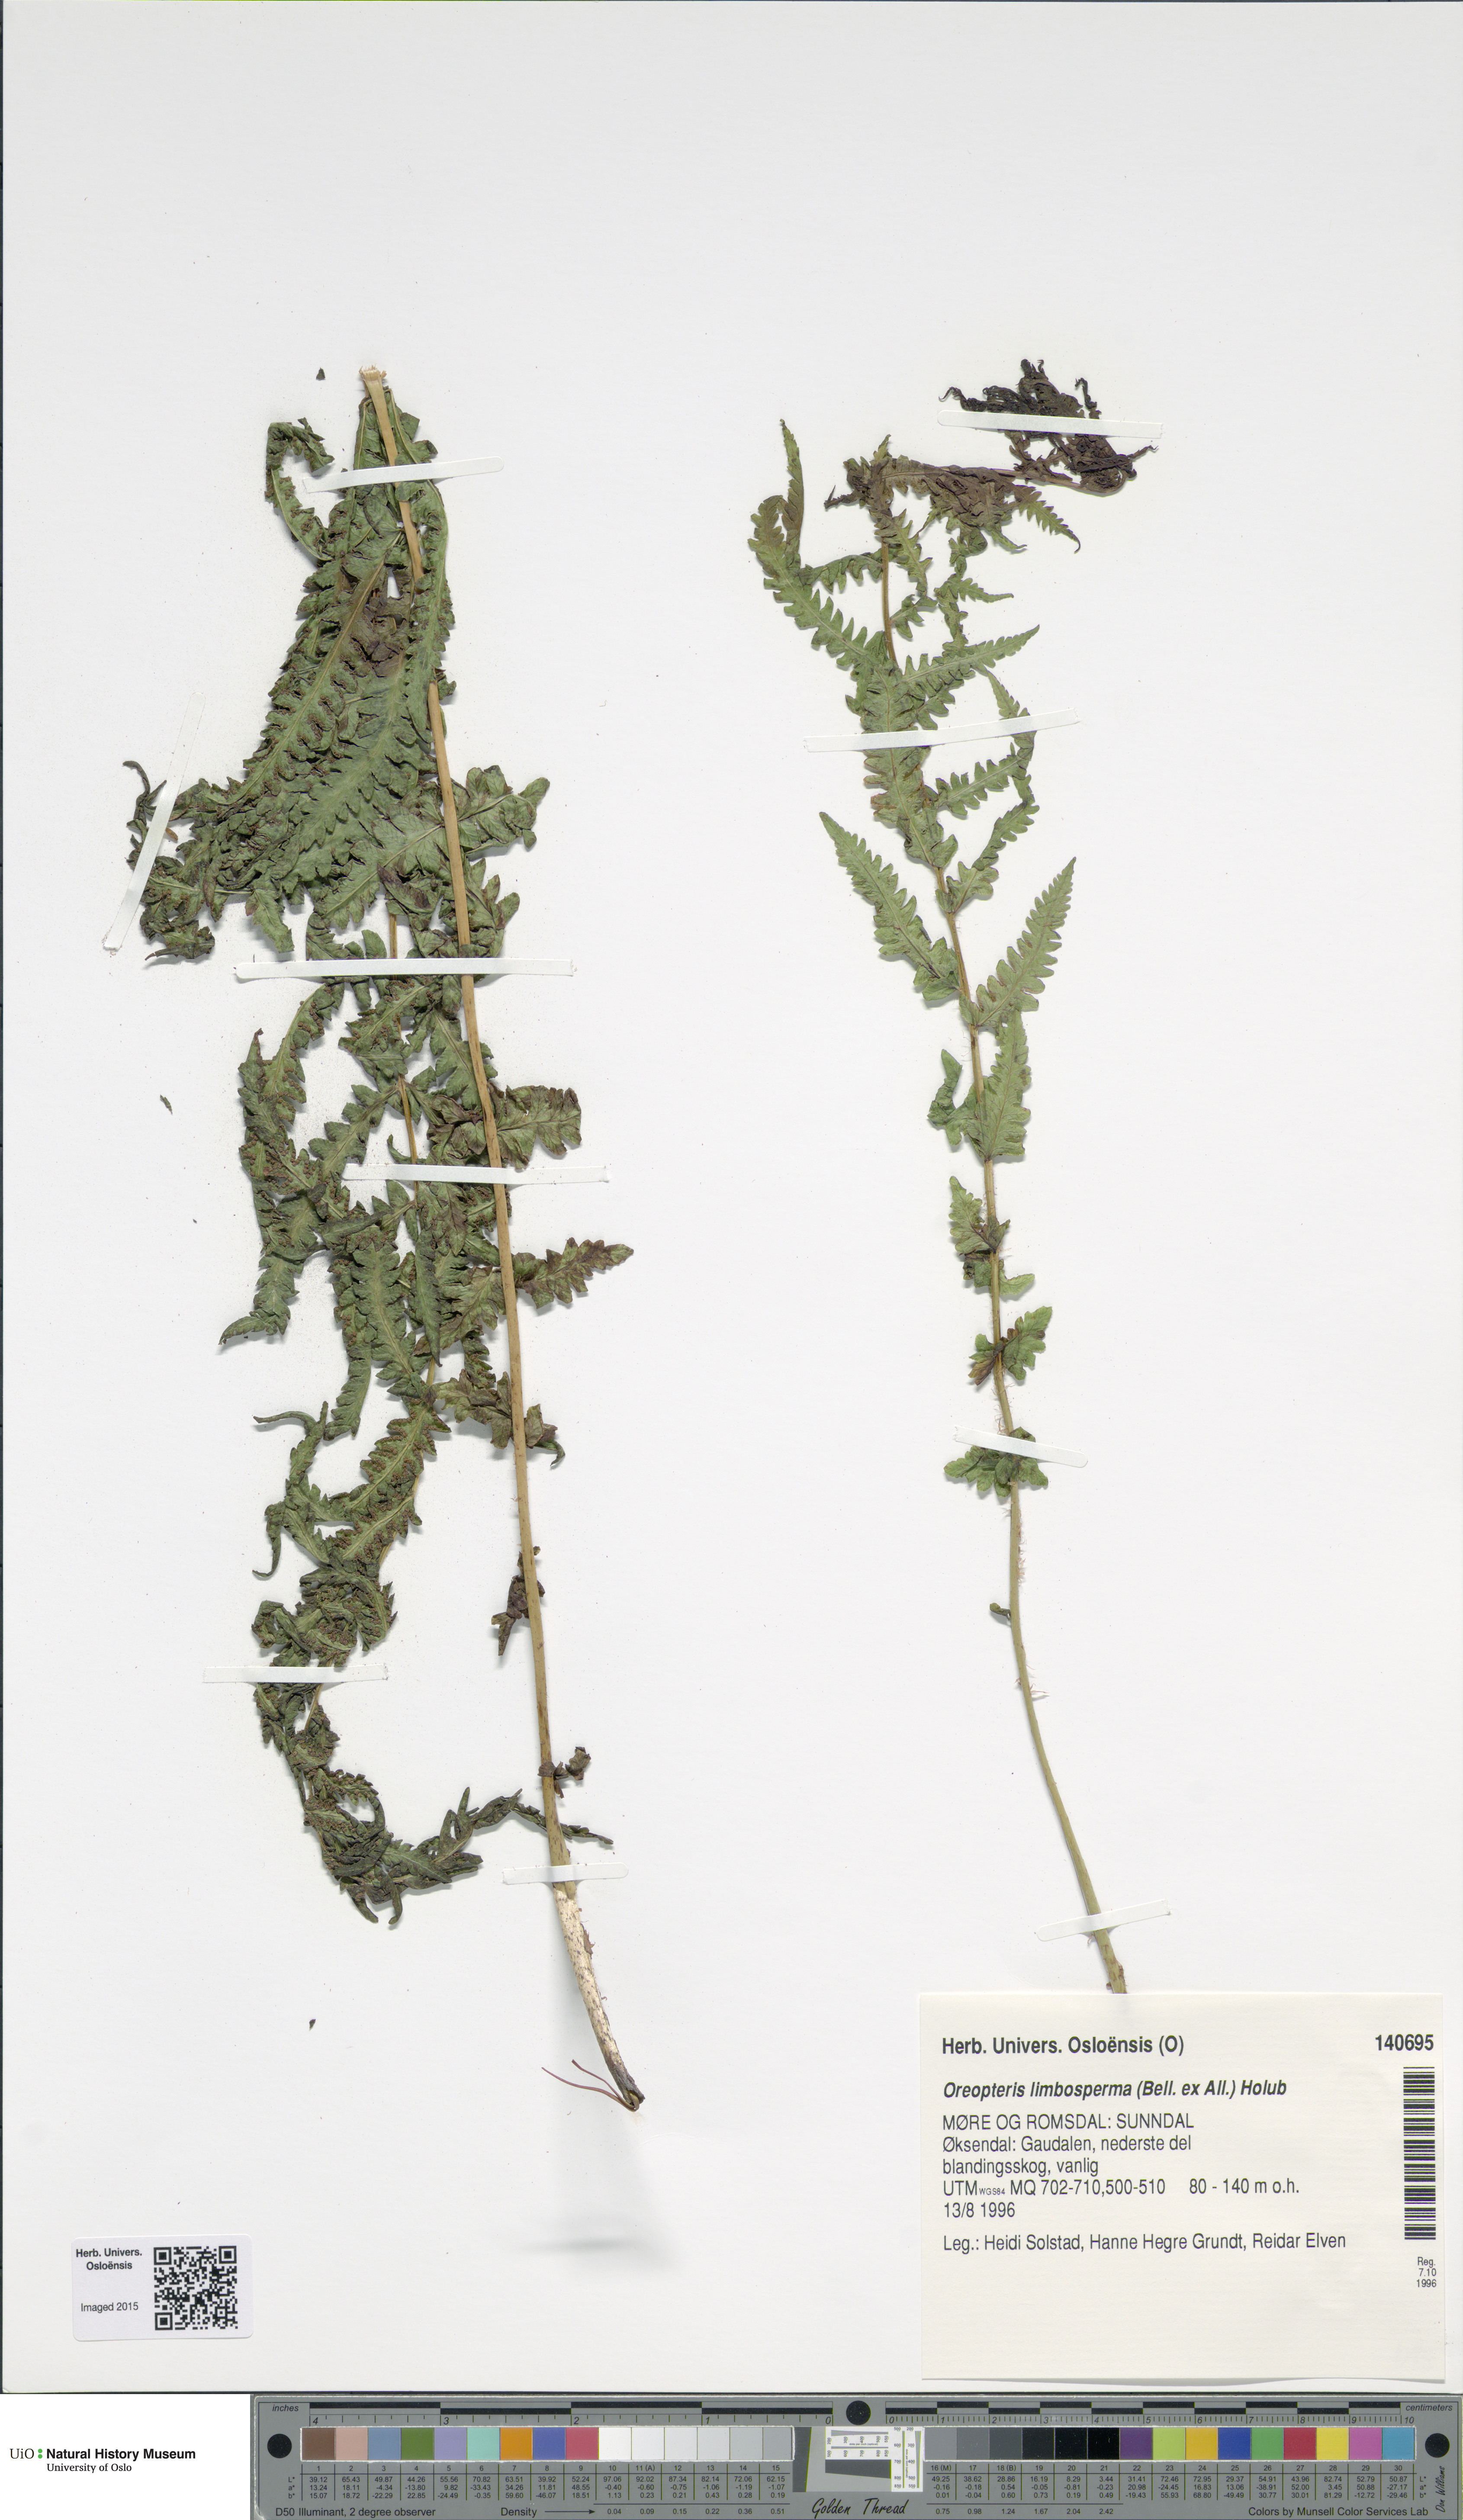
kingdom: Plantae
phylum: Tracheophyta
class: Polypodiopsida
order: Polypodiales
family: Thelypteridaceae
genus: Oreopteris
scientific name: Oreopteris limbosperma
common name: Lemon-scented fern
